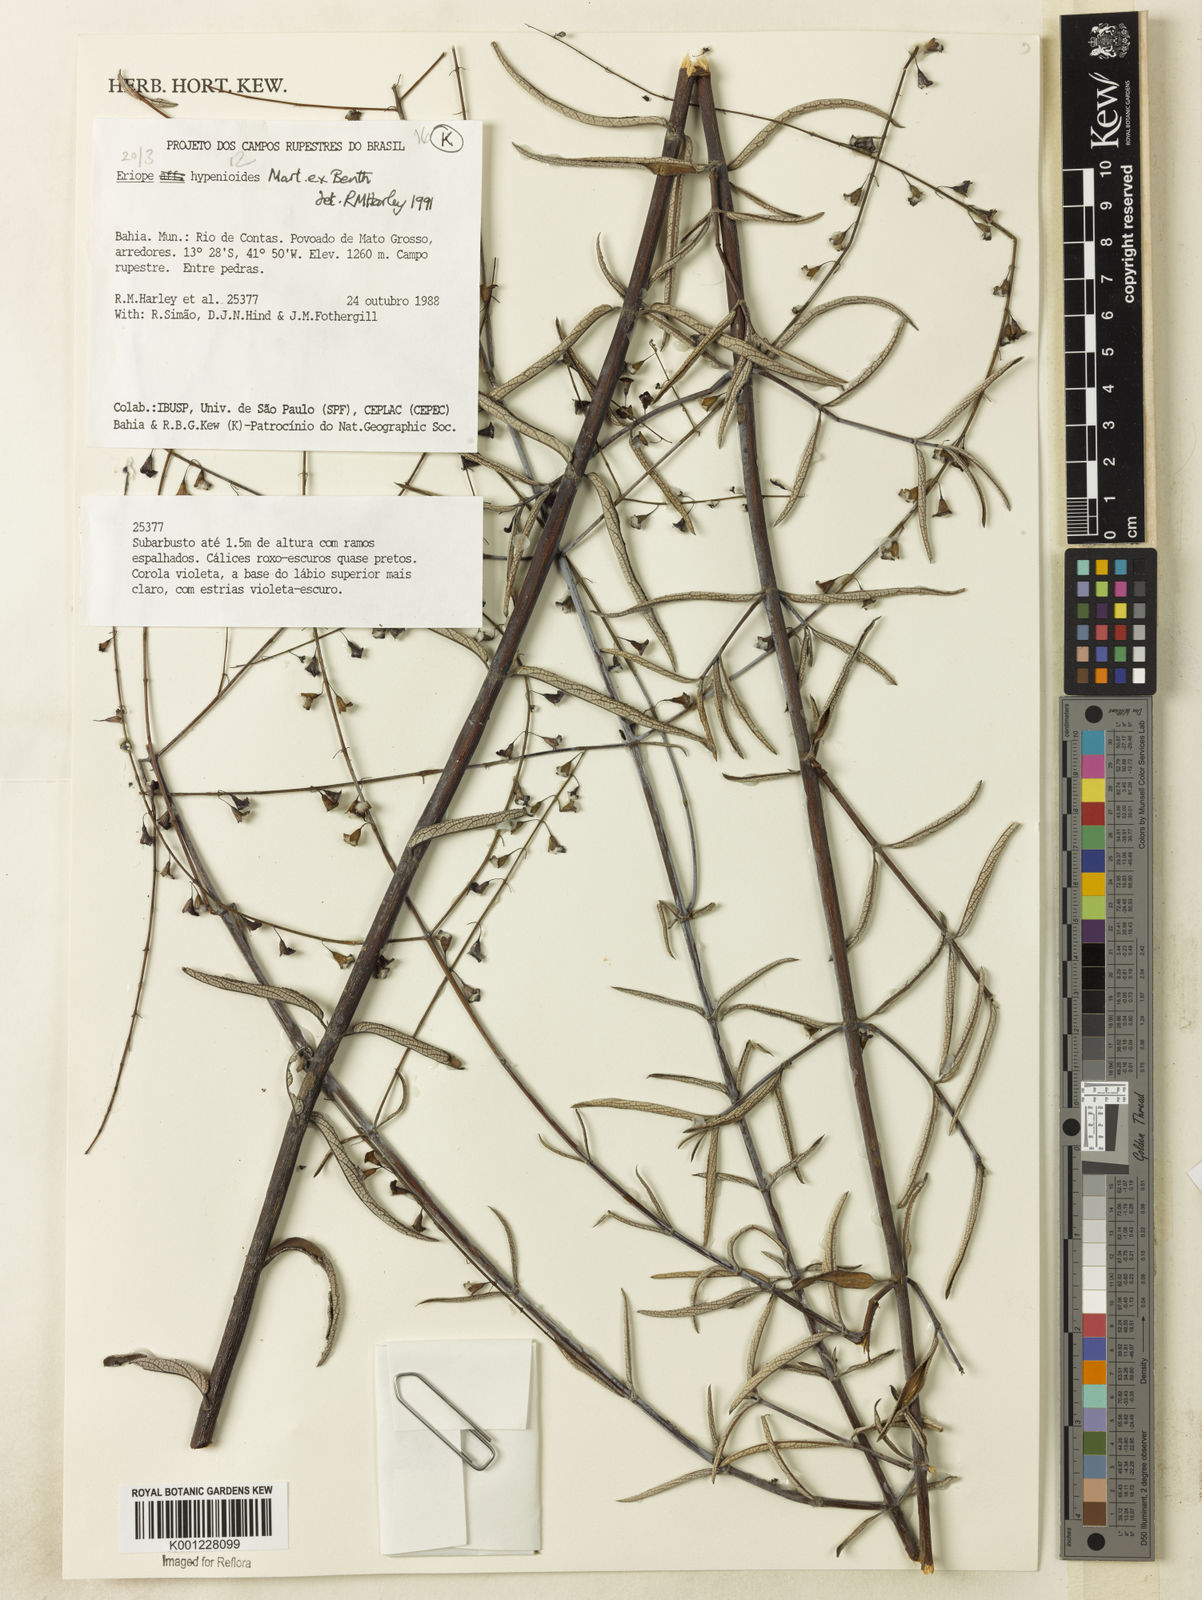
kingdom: Plantae
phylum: Tracheophyta
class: Magnoliopsida
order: Lamiales
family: Lamiaceae
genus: Eriope
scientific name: Eriope hypenioides
